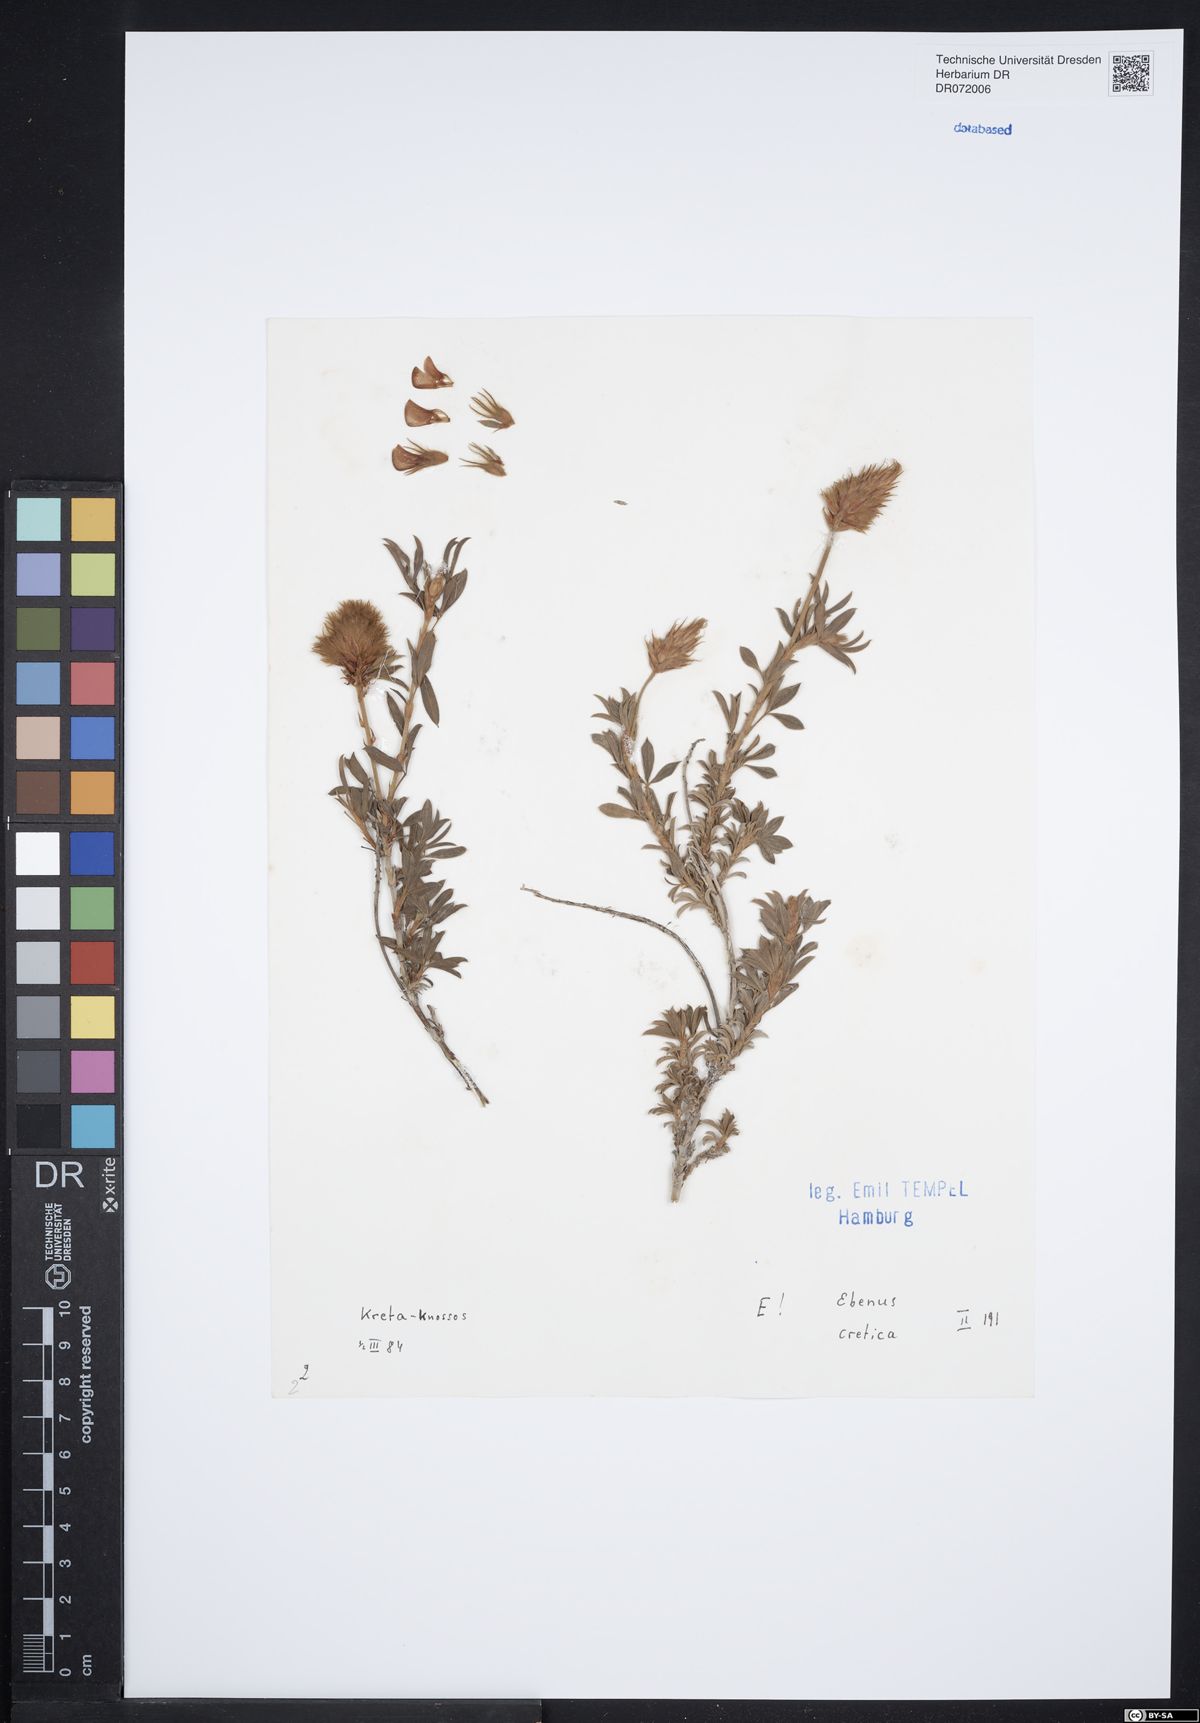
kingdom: Plantae
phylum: Tracheophyta
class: Magnoliopsida
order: Fabales
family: Fabaceae
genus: Ebenus
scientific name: Ebenus cretica
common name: Cretan silver bush
